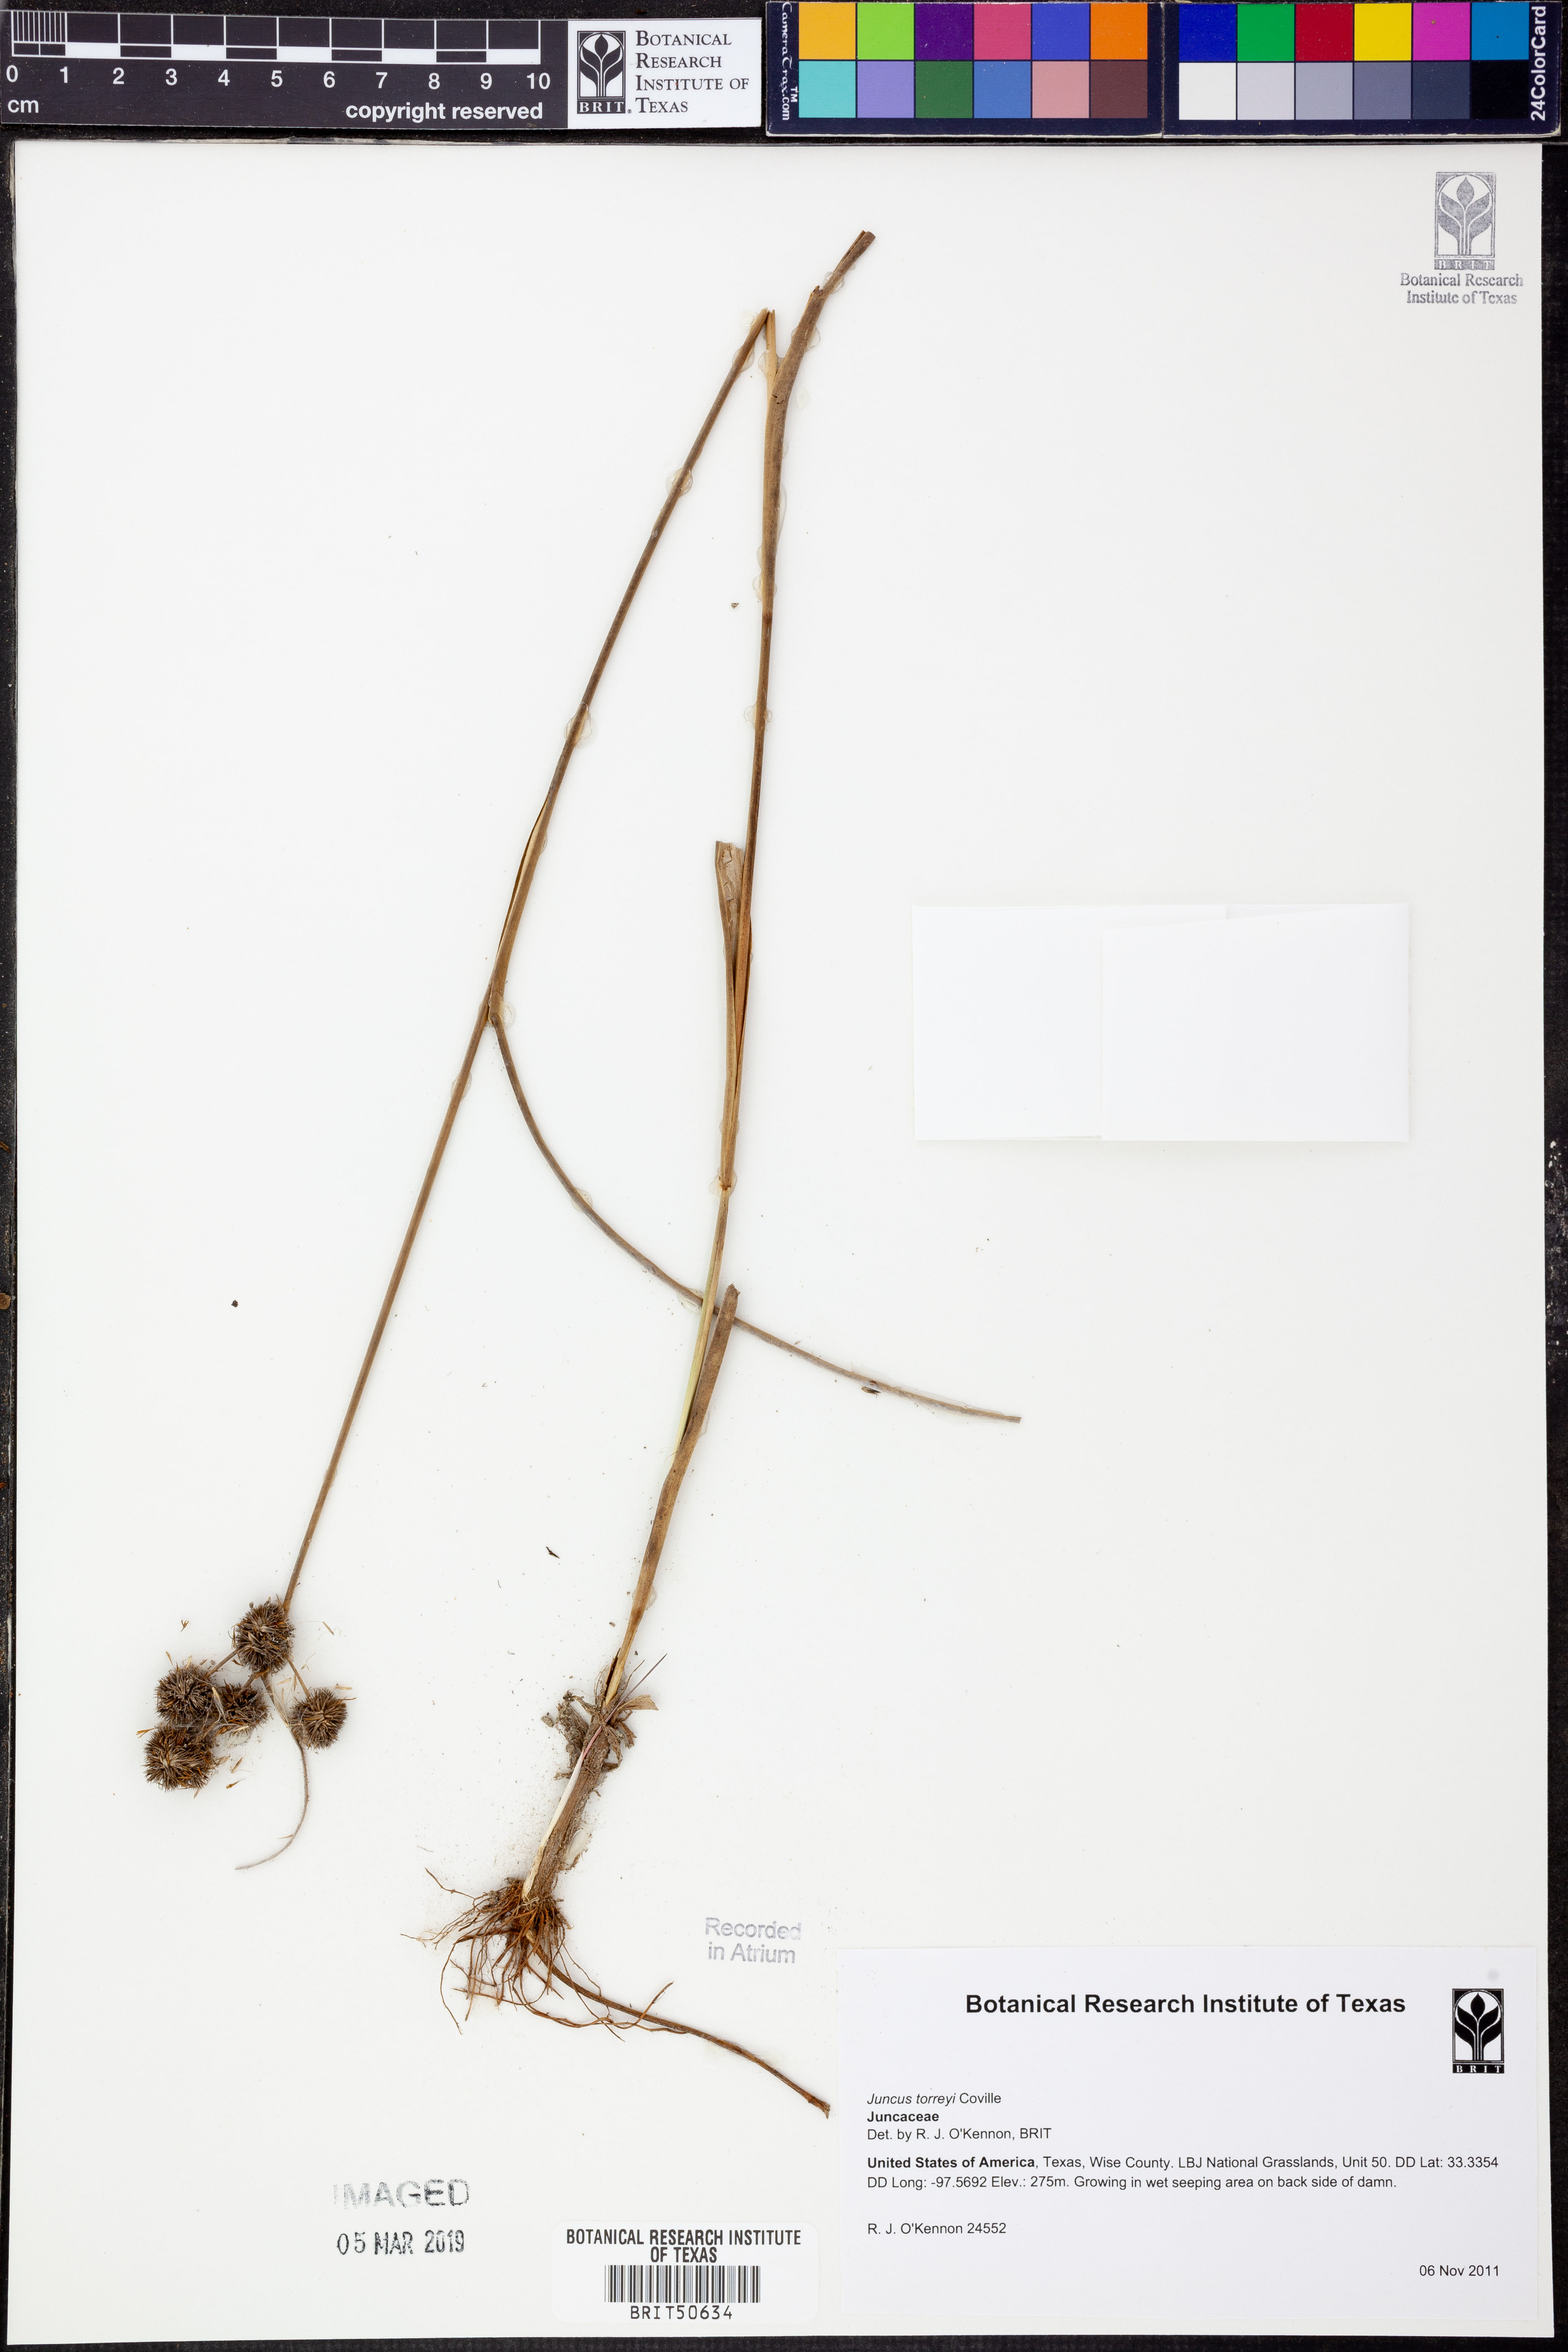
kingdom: Plantae
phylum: Tracheophyta
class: Liliopsida
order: Poales
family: Juncaceae
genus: Juncus
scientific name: Juncus torreyi
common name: Torrey's rush
